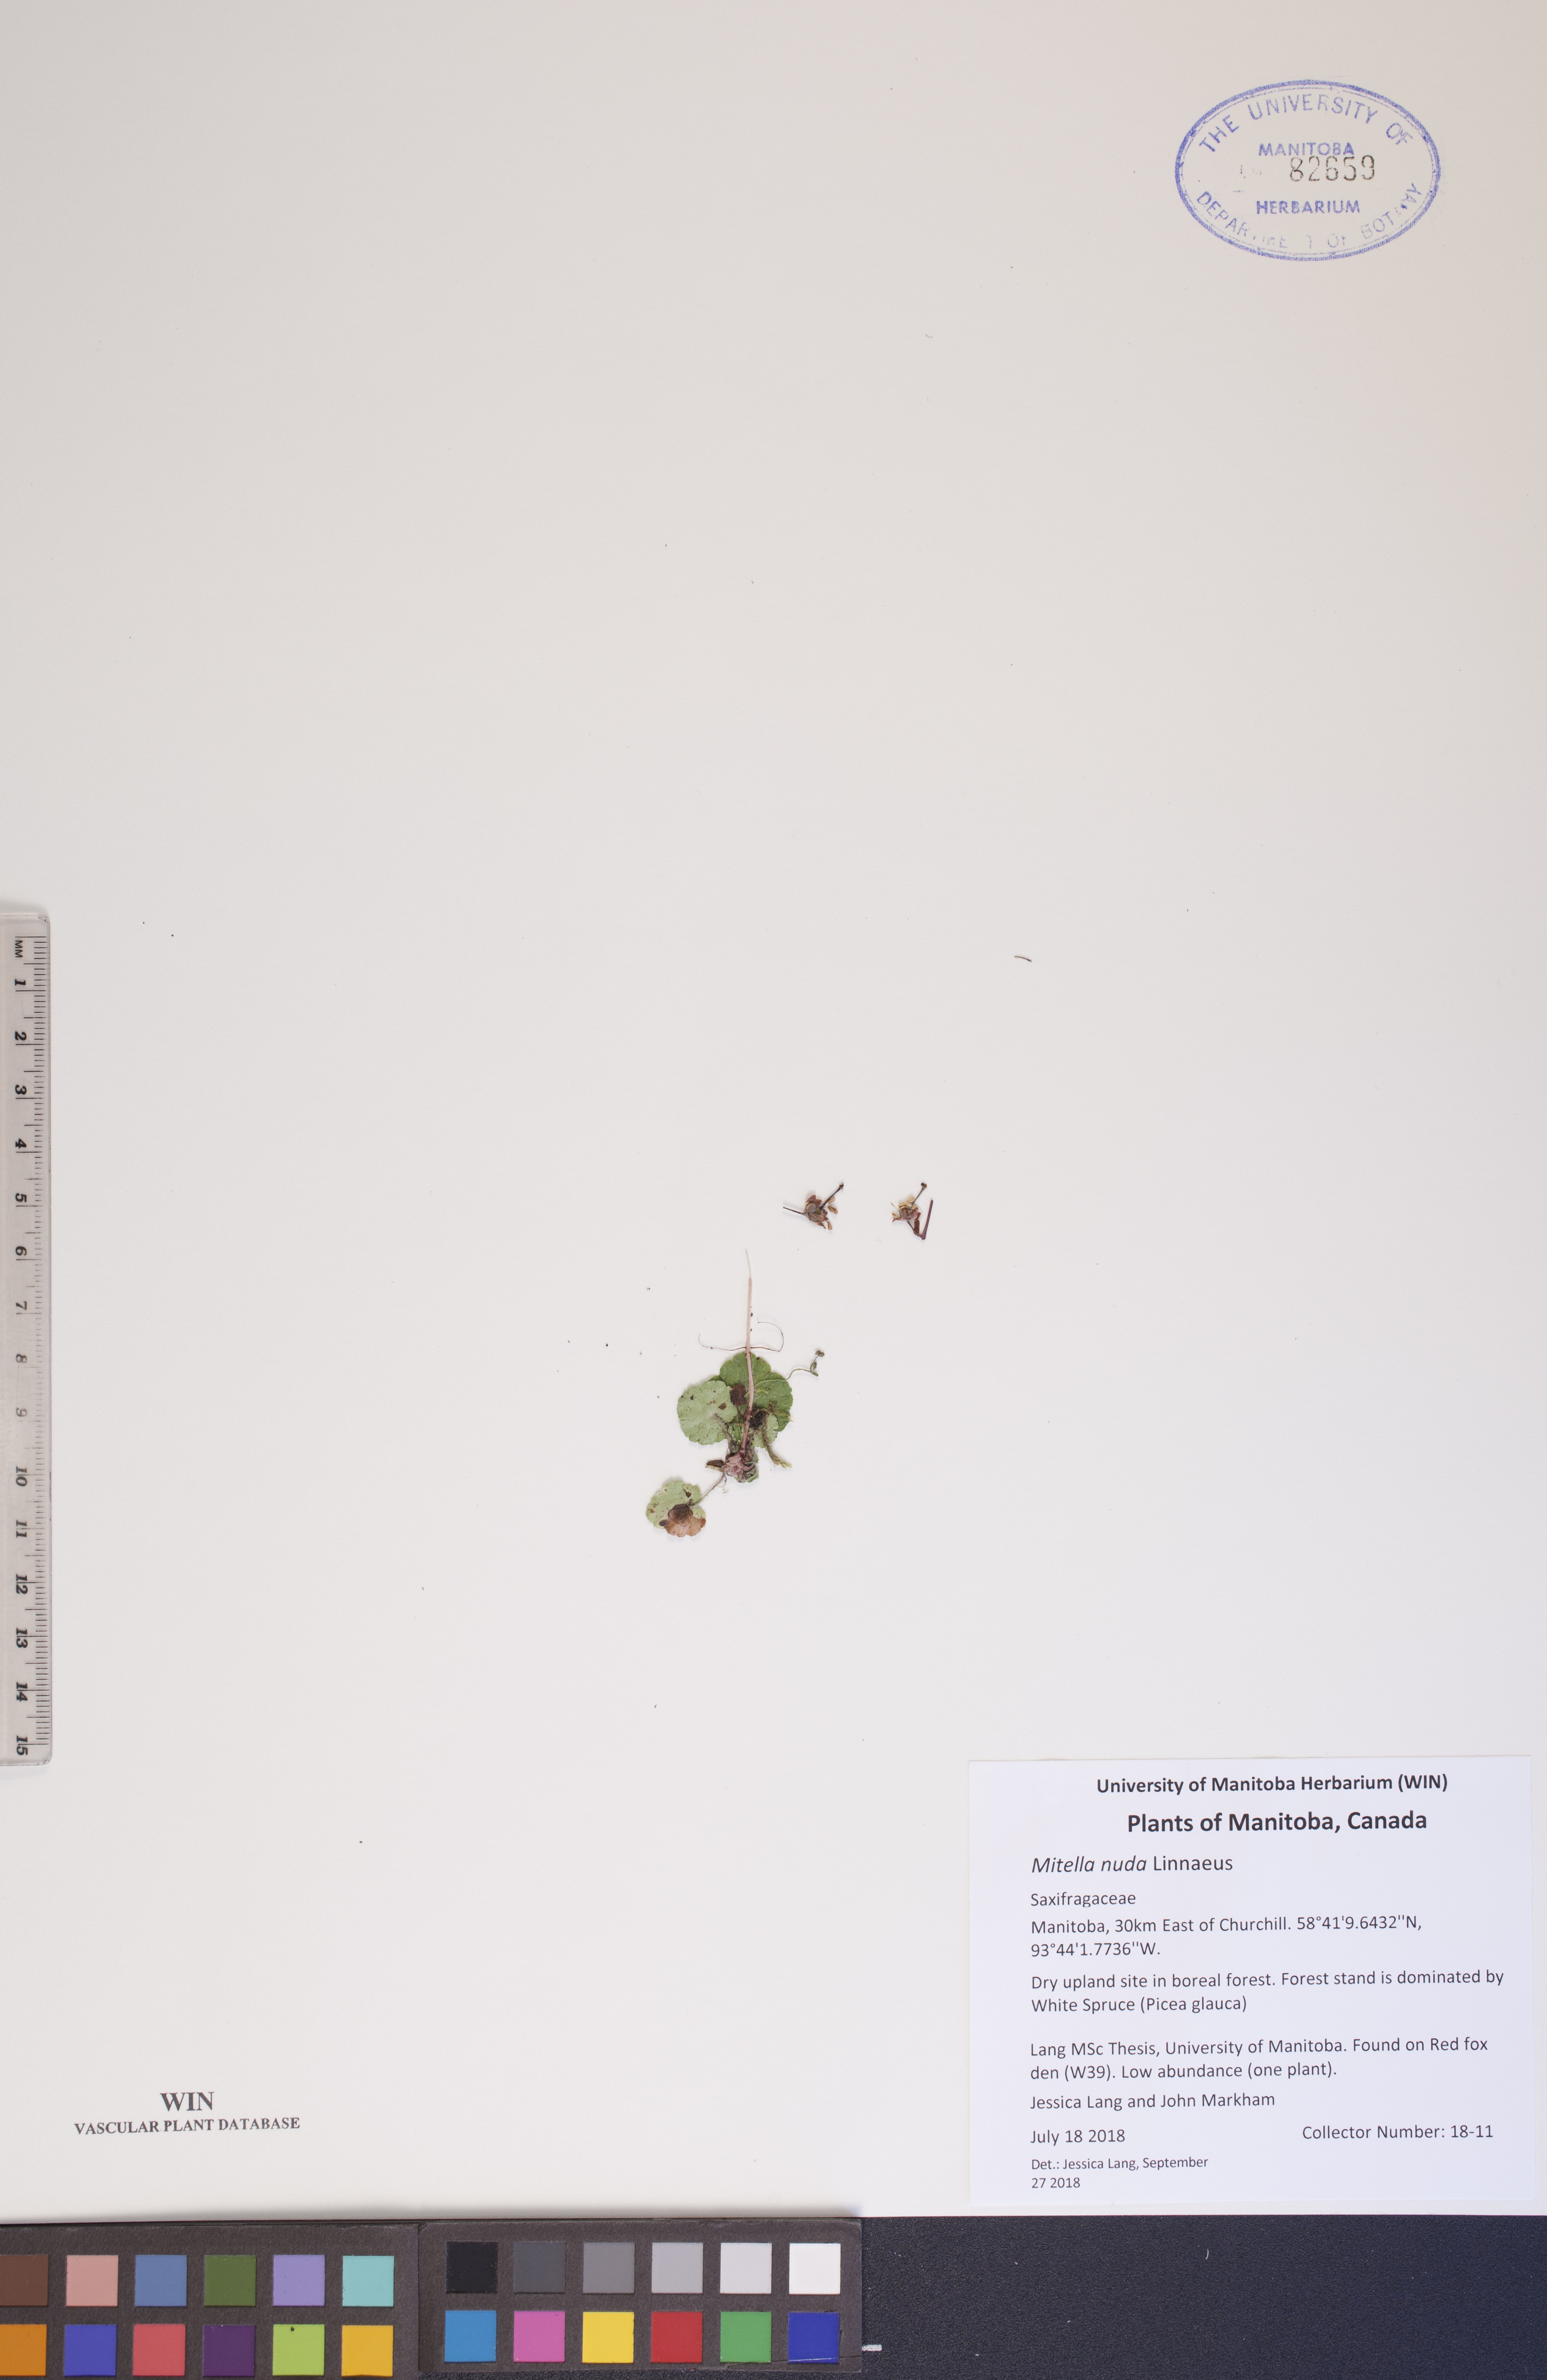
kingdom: Plantae
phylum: Tracheophyta
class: Magnoliopsida
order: Saxifragales
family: Saxifragaceae
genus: Mitella
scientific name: Mitella nuda
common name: Bare-stemmed bishop's-cap
